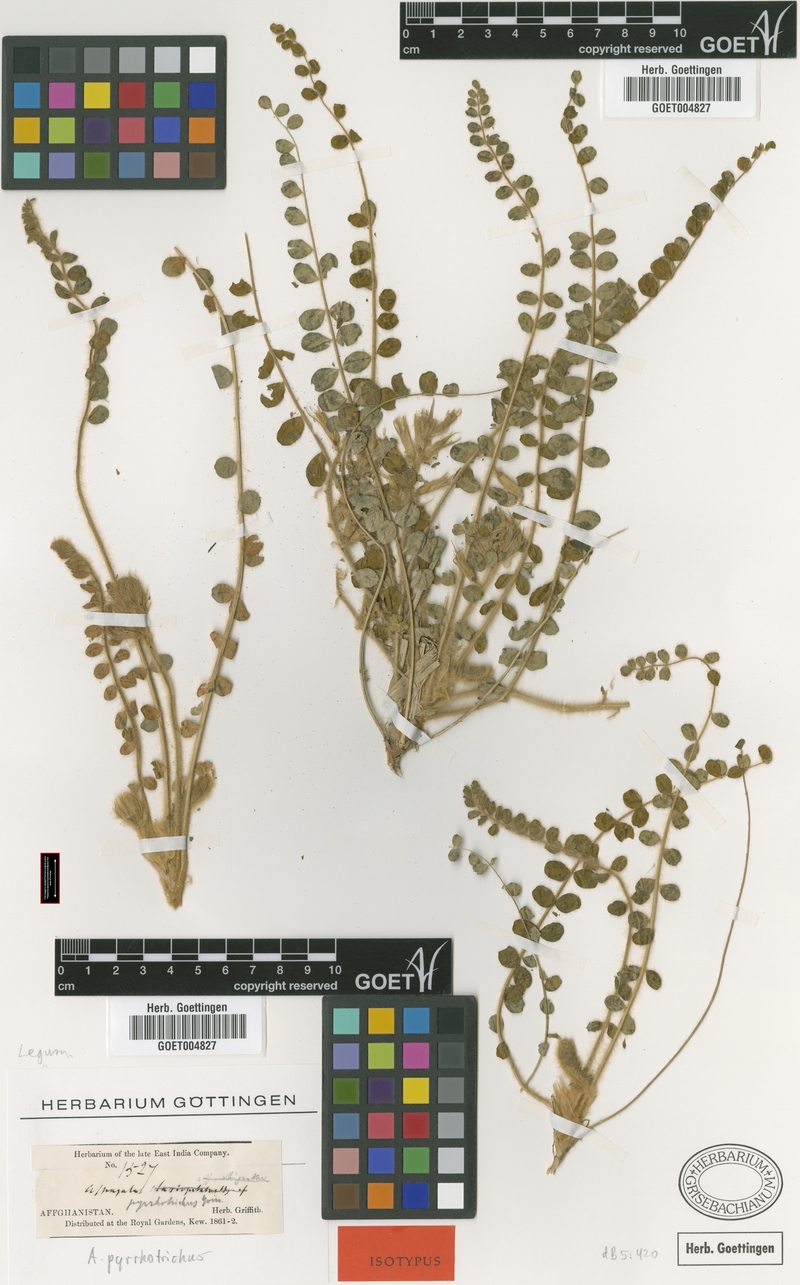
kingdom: Plantae
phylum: Tracheophyta
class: Magnoliopsida
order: Fabales
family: Fabaceae
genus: Astragalus
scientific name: Astragalus pyrrhotrichus
